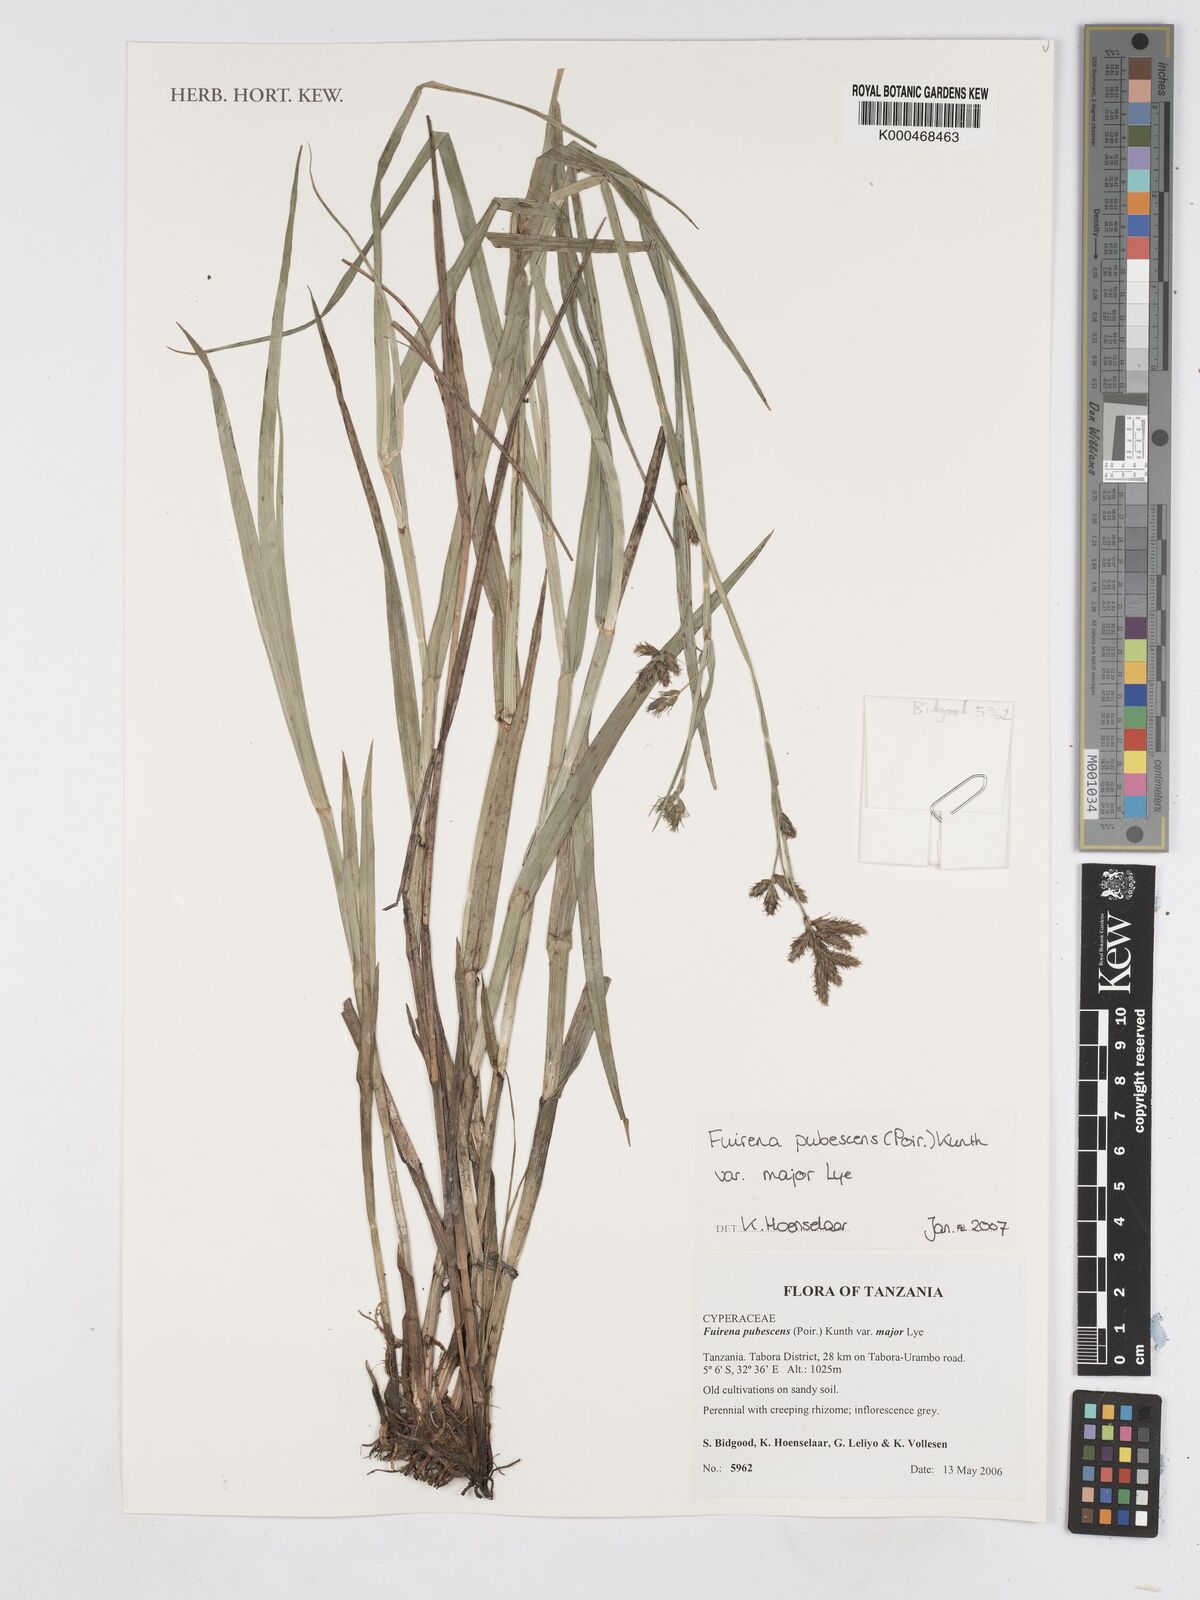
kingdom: Plantae
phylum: Tracheophyta
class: Liliopsida
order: Poales
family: Cyperaceae
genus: Fuirena
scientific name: Fuirena pachyrrhiza
